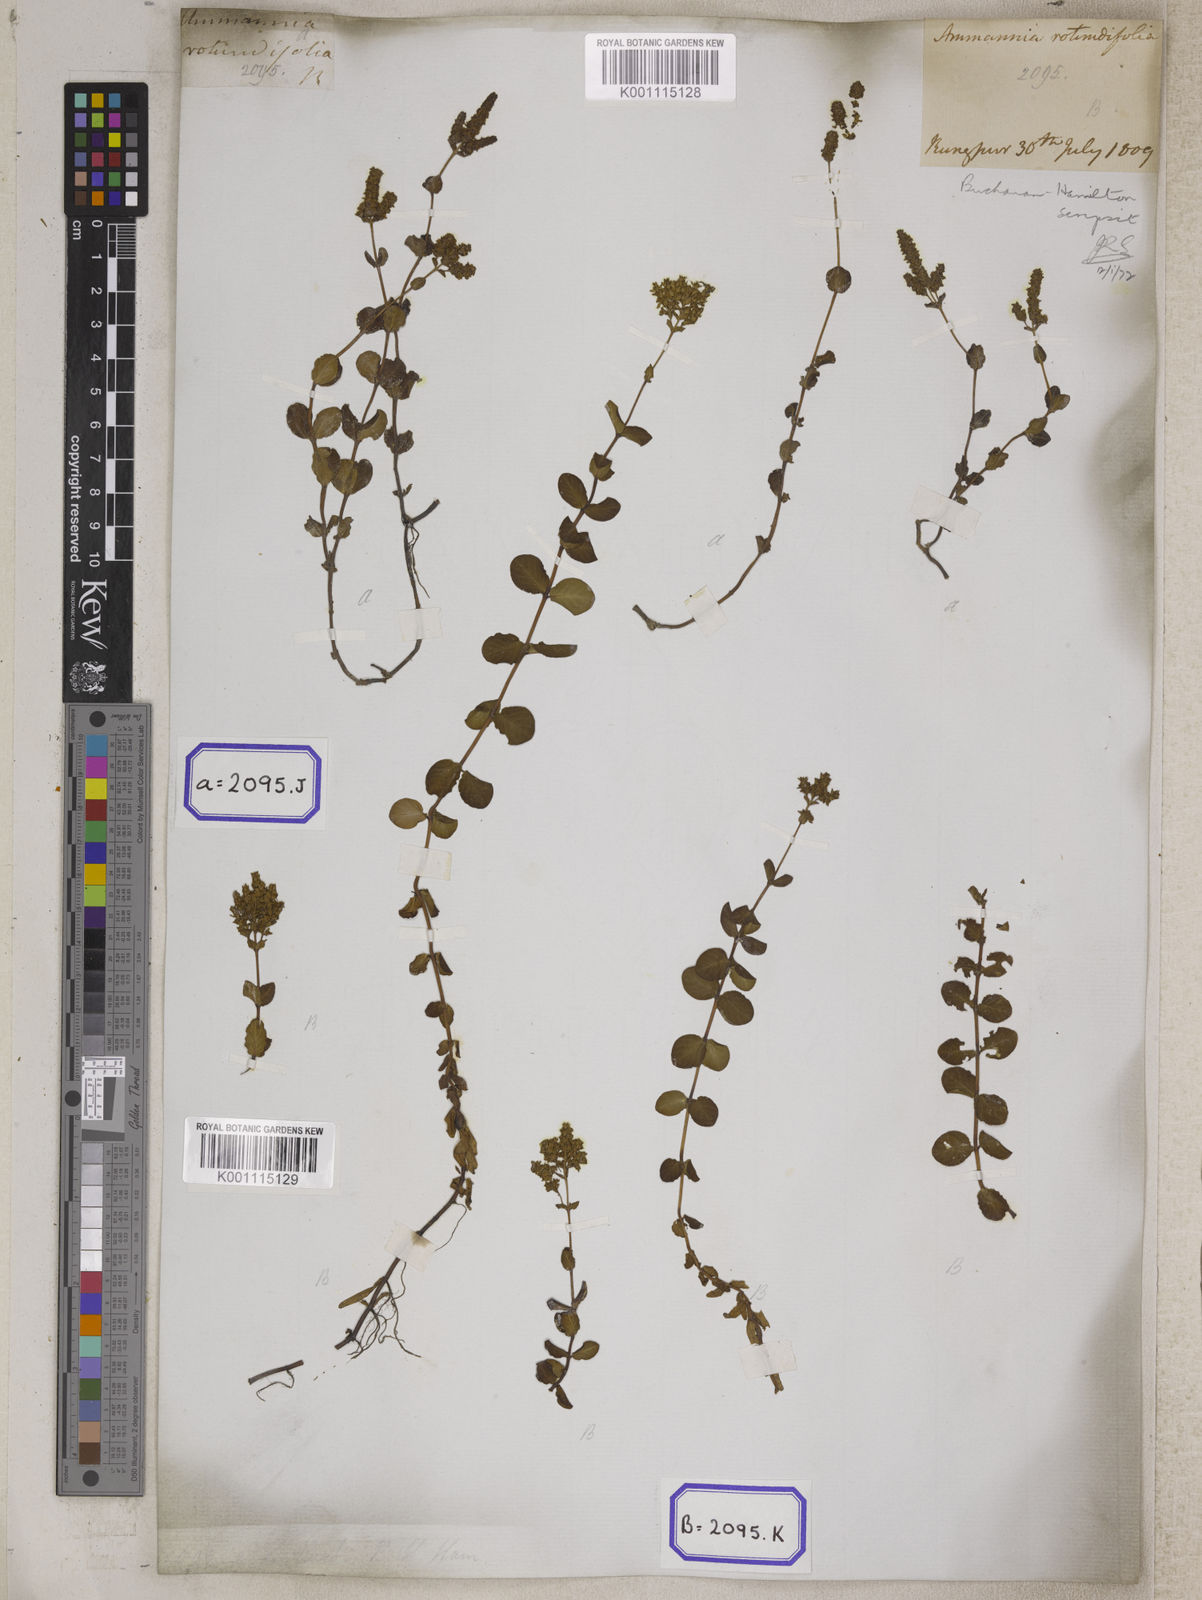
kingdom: Plantae
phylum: Tracheophyta
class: Magnoliopsida
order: Myrtales
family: Lythraceae
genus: Ammannia
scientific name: Ammannia
